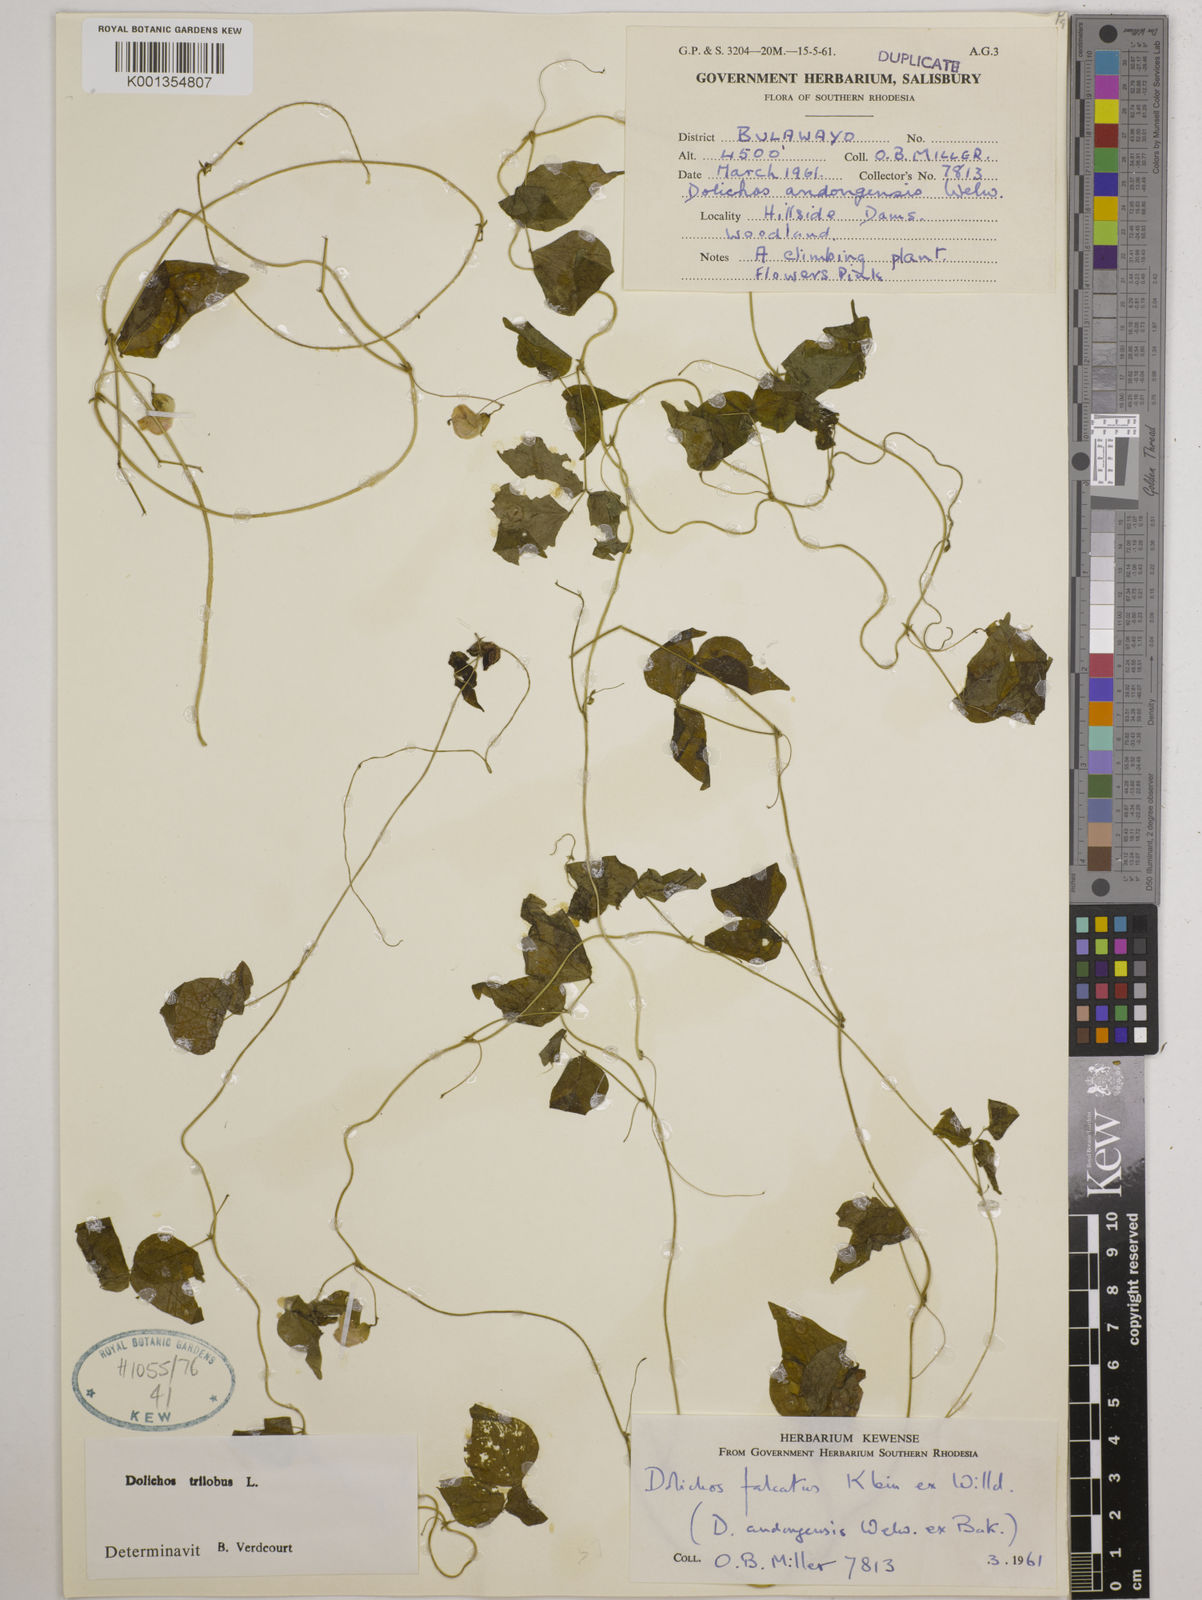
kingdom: Plantae
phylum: Tracheophyta
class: Magnoliopsida
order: Fabales
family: Fabaceae
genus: Dolichos
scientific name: Dolichos
